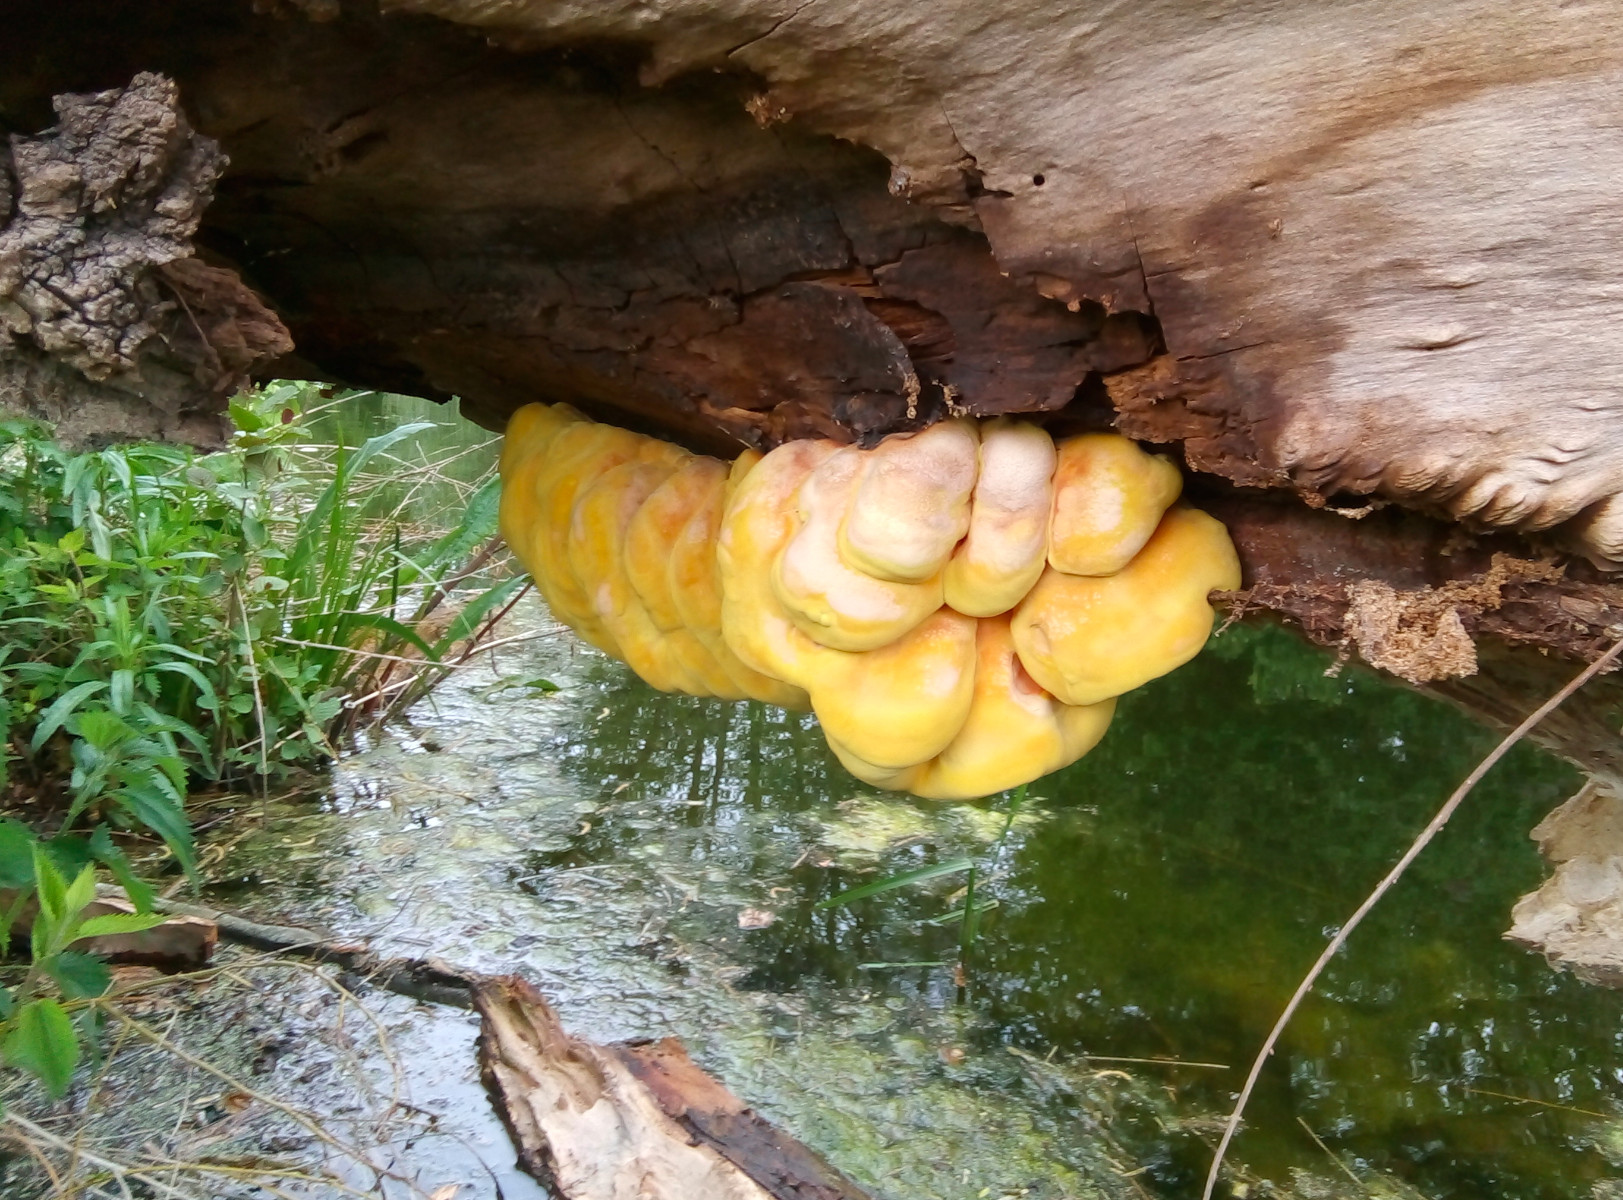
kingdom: Fungi
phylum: Basidiomycota
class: Agaricomycetes
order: Polyporales
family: Laetiporaceae
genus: Laetiporus
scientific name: Laetiporus sulphureus
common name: svovlporesvamp
